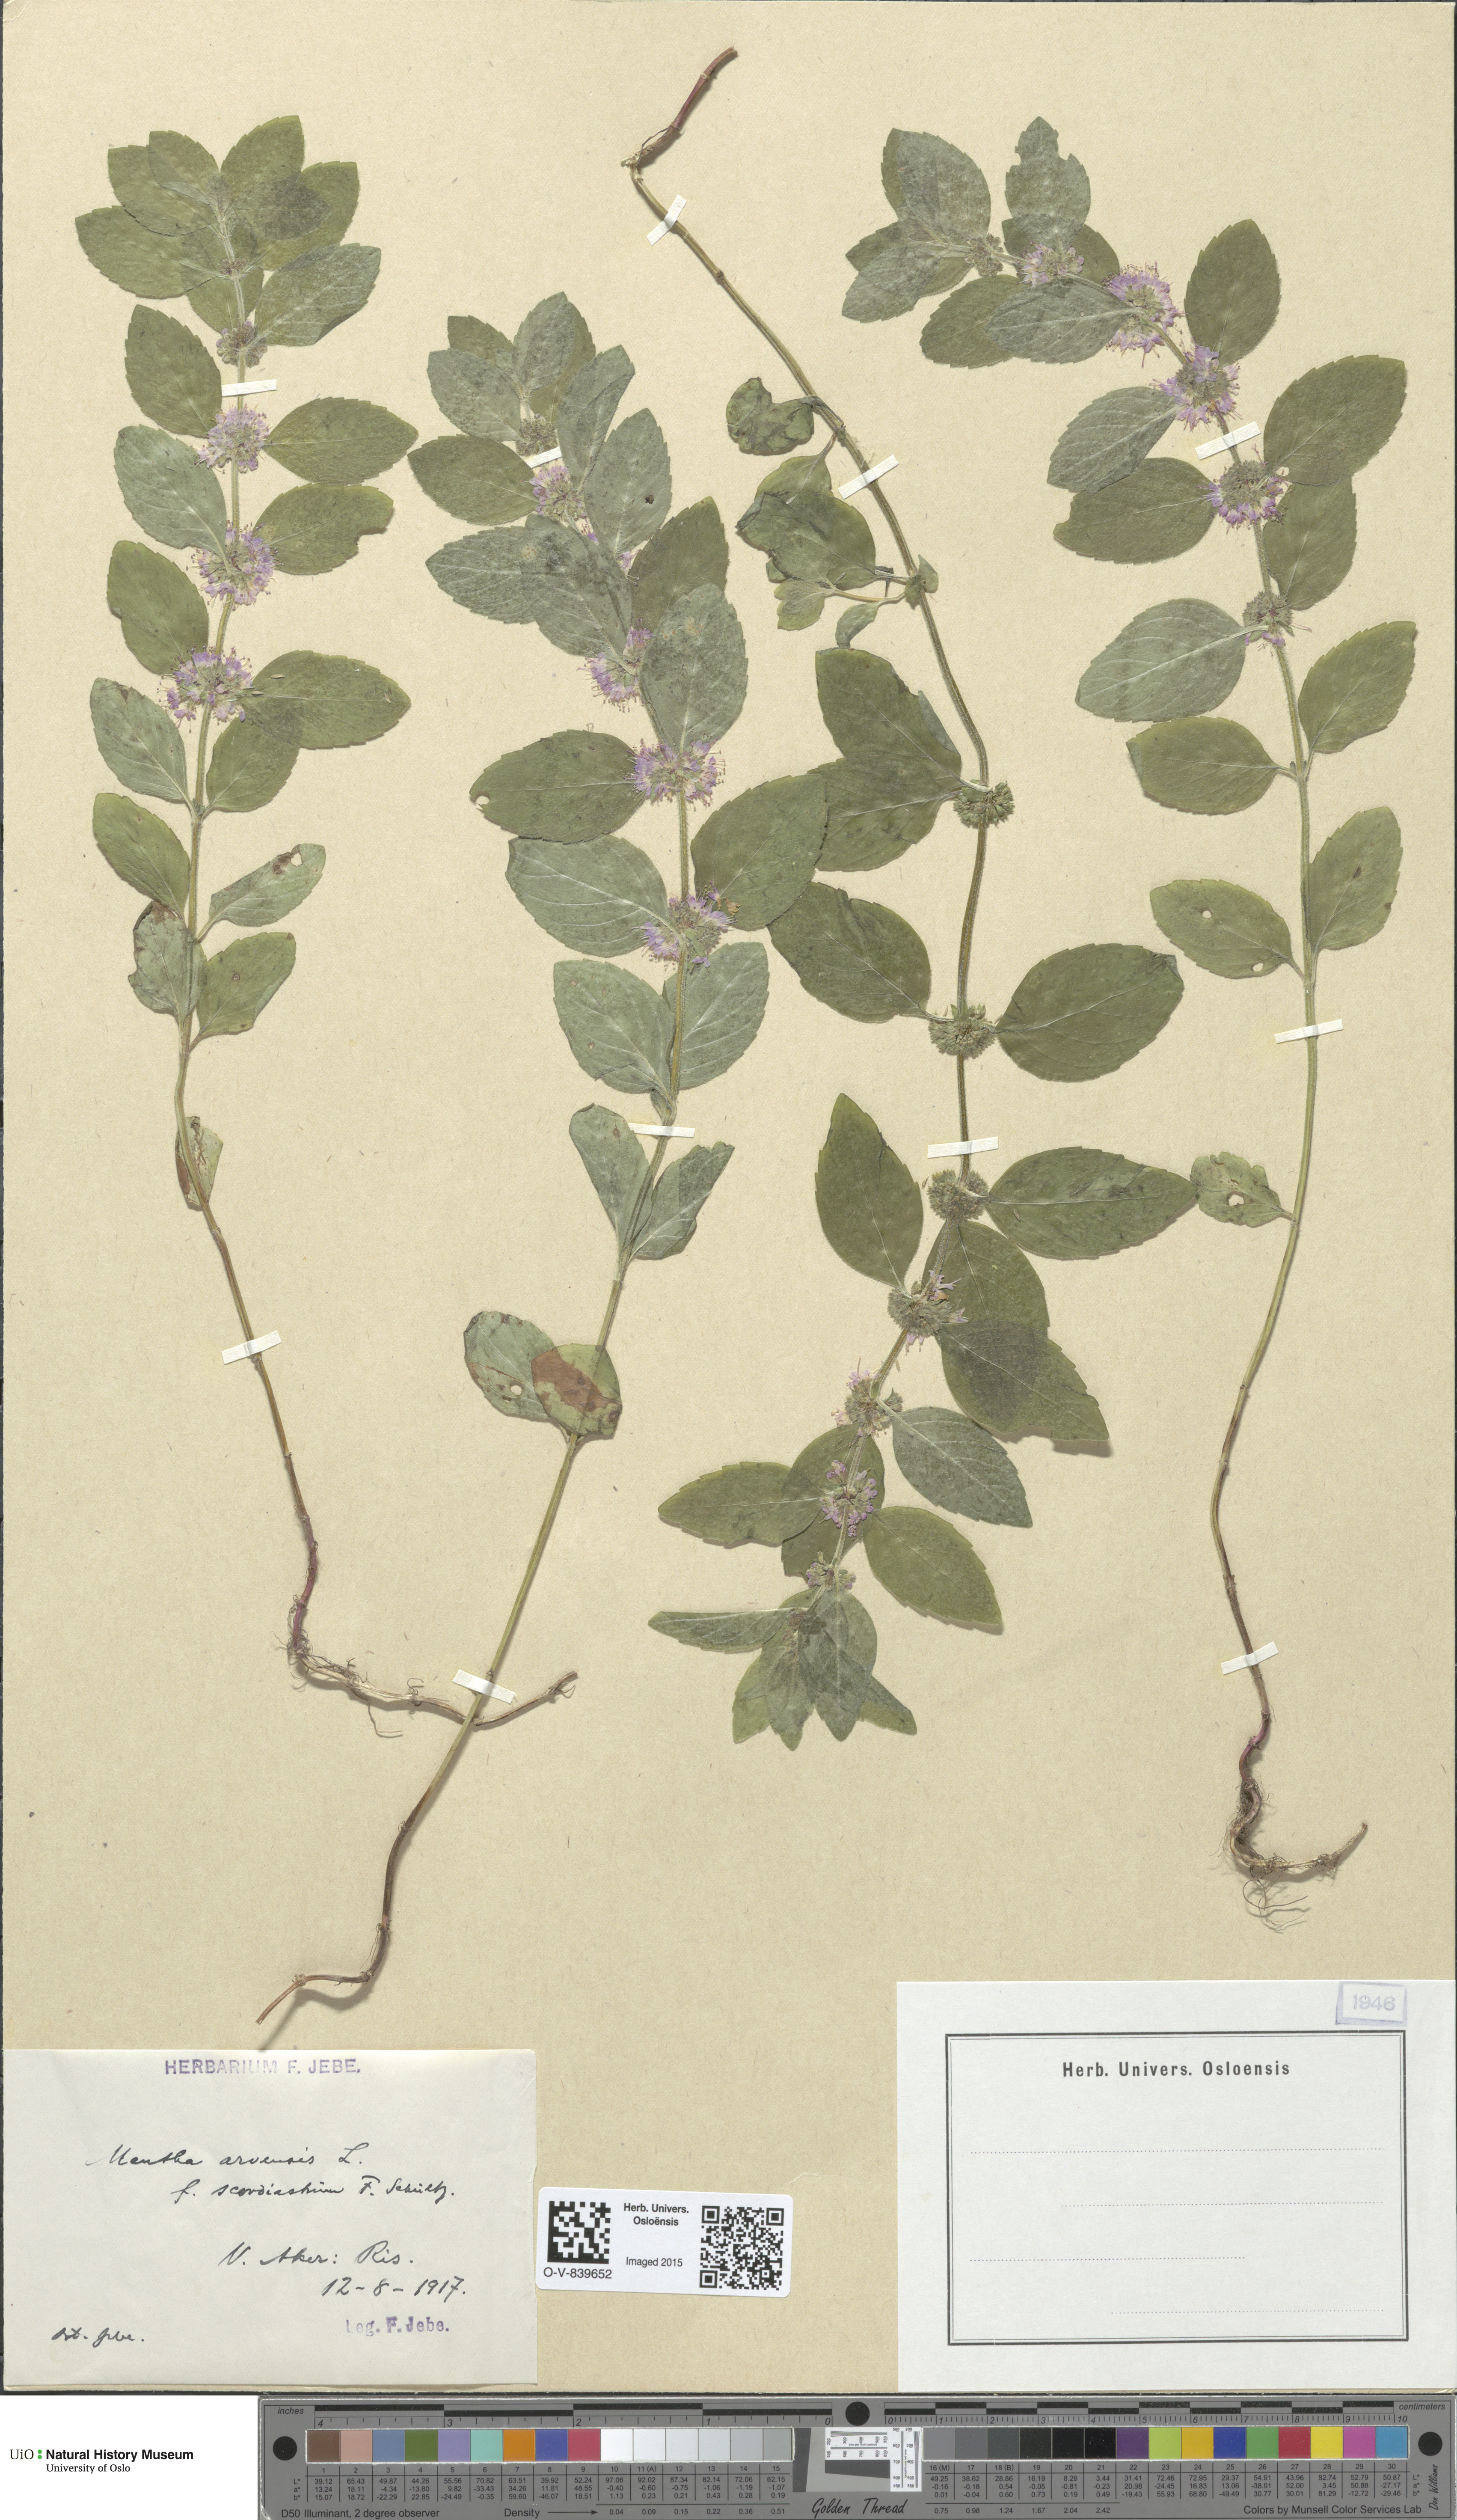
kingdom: Plantae
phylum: Tracheophyta
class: Magnoliopsida
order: Lamiales
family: Lamiaceae
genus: Mentha
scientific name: Mentha arvensis
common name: Corn mint
